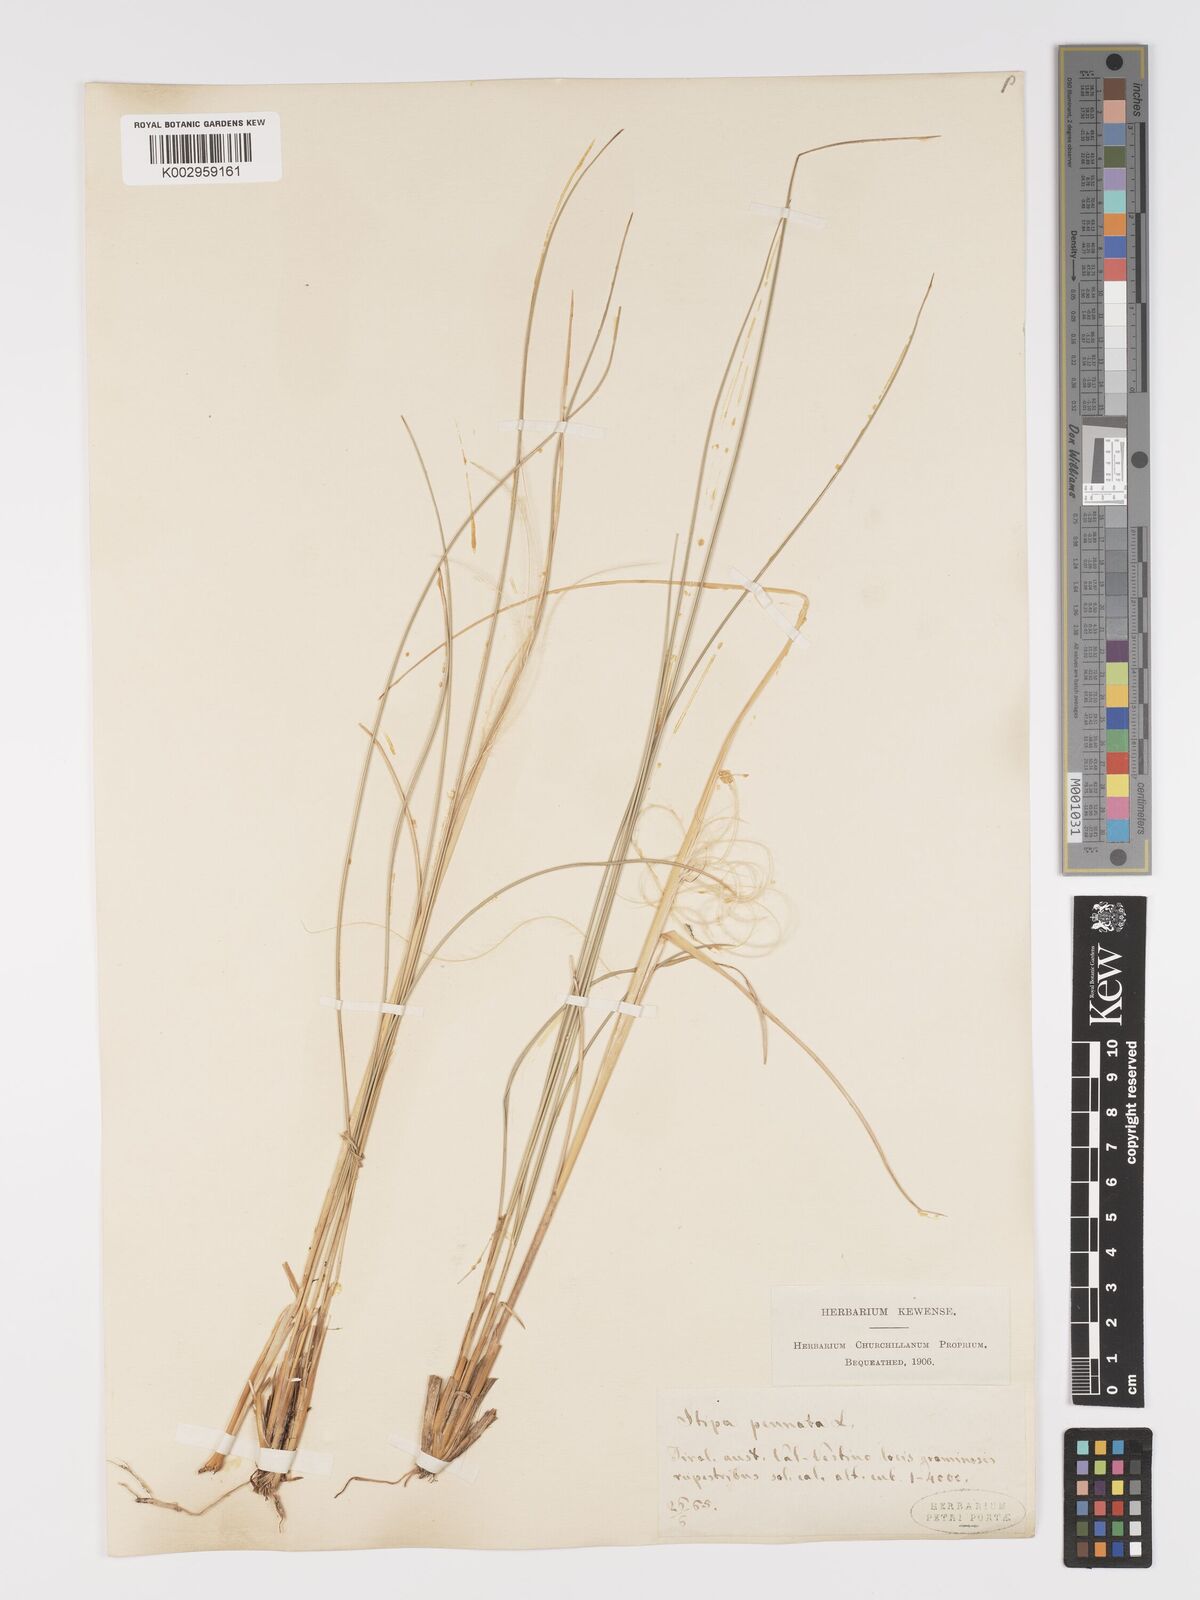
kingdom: Plantae
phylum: Tracheophyta
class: Liliopsida
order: Poales
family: Poaceae
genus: Stipa
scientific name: Stipa pennata
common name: European feather grass
